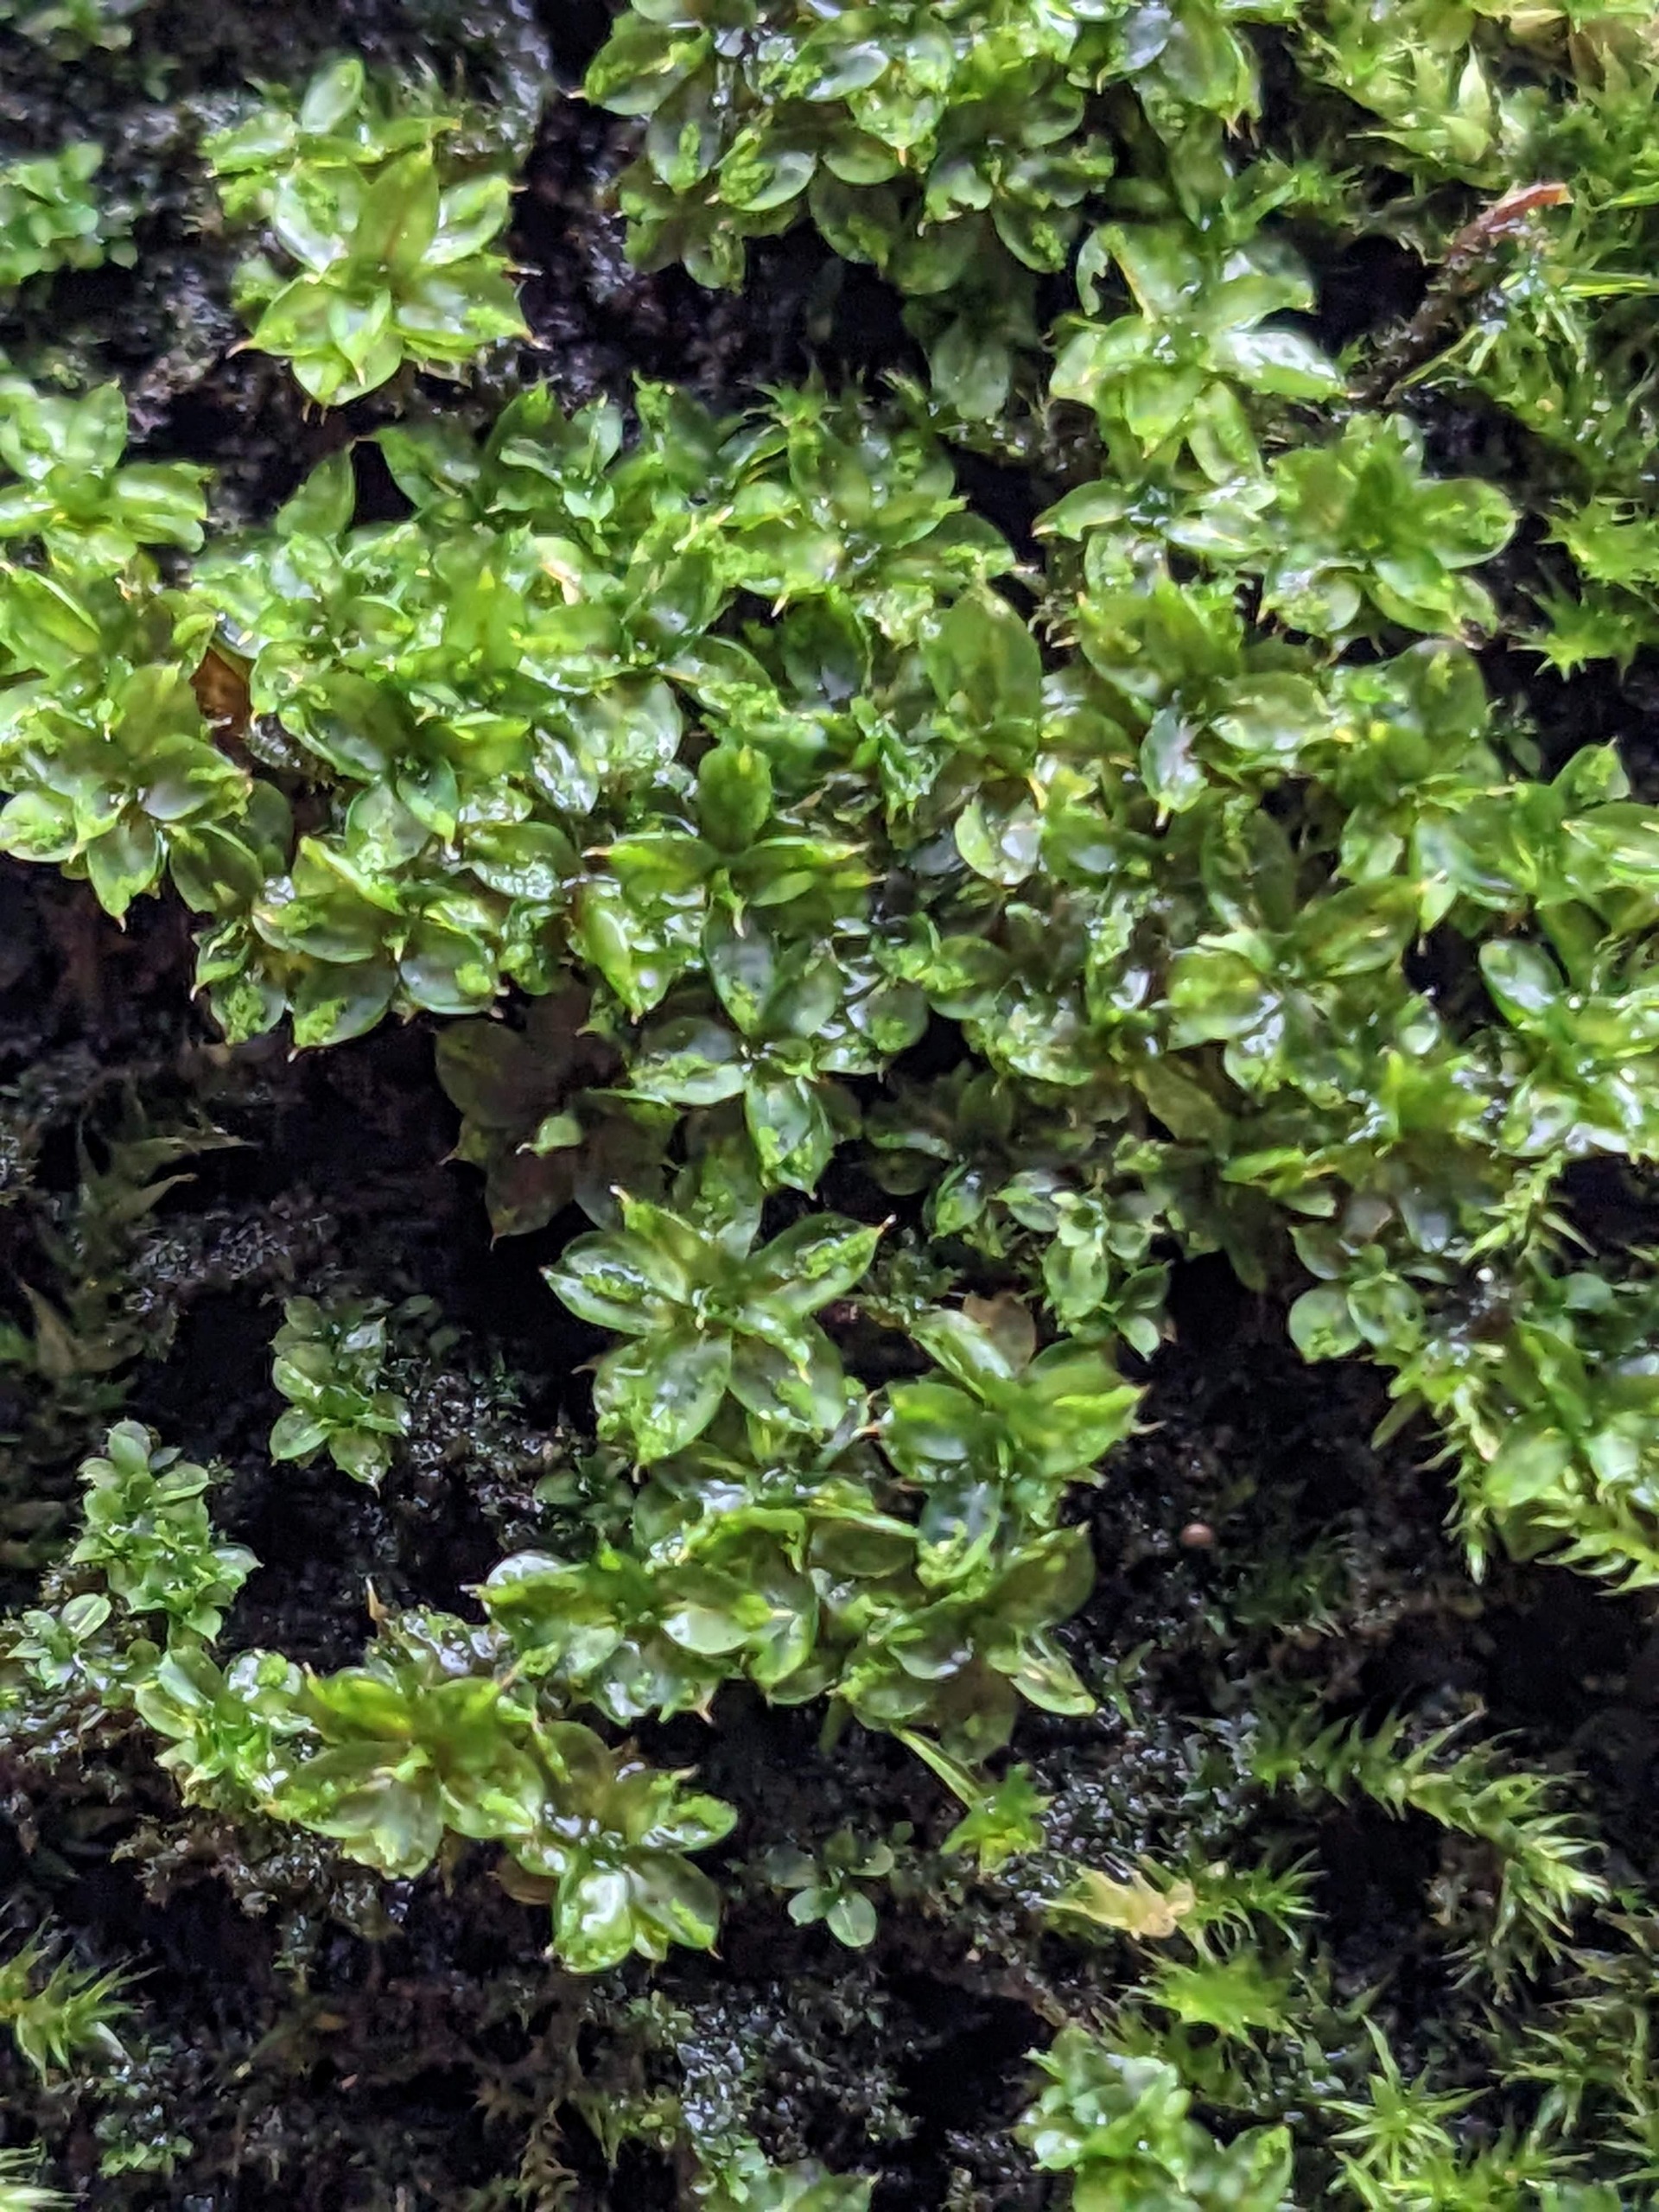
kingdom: Plantae
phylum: Bryophyta
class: Bryopsida
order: Pottiales
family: Pottiaceae
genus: Syntrichia
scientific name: Syntrichia papillosa
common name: Bark-hårstjerne
